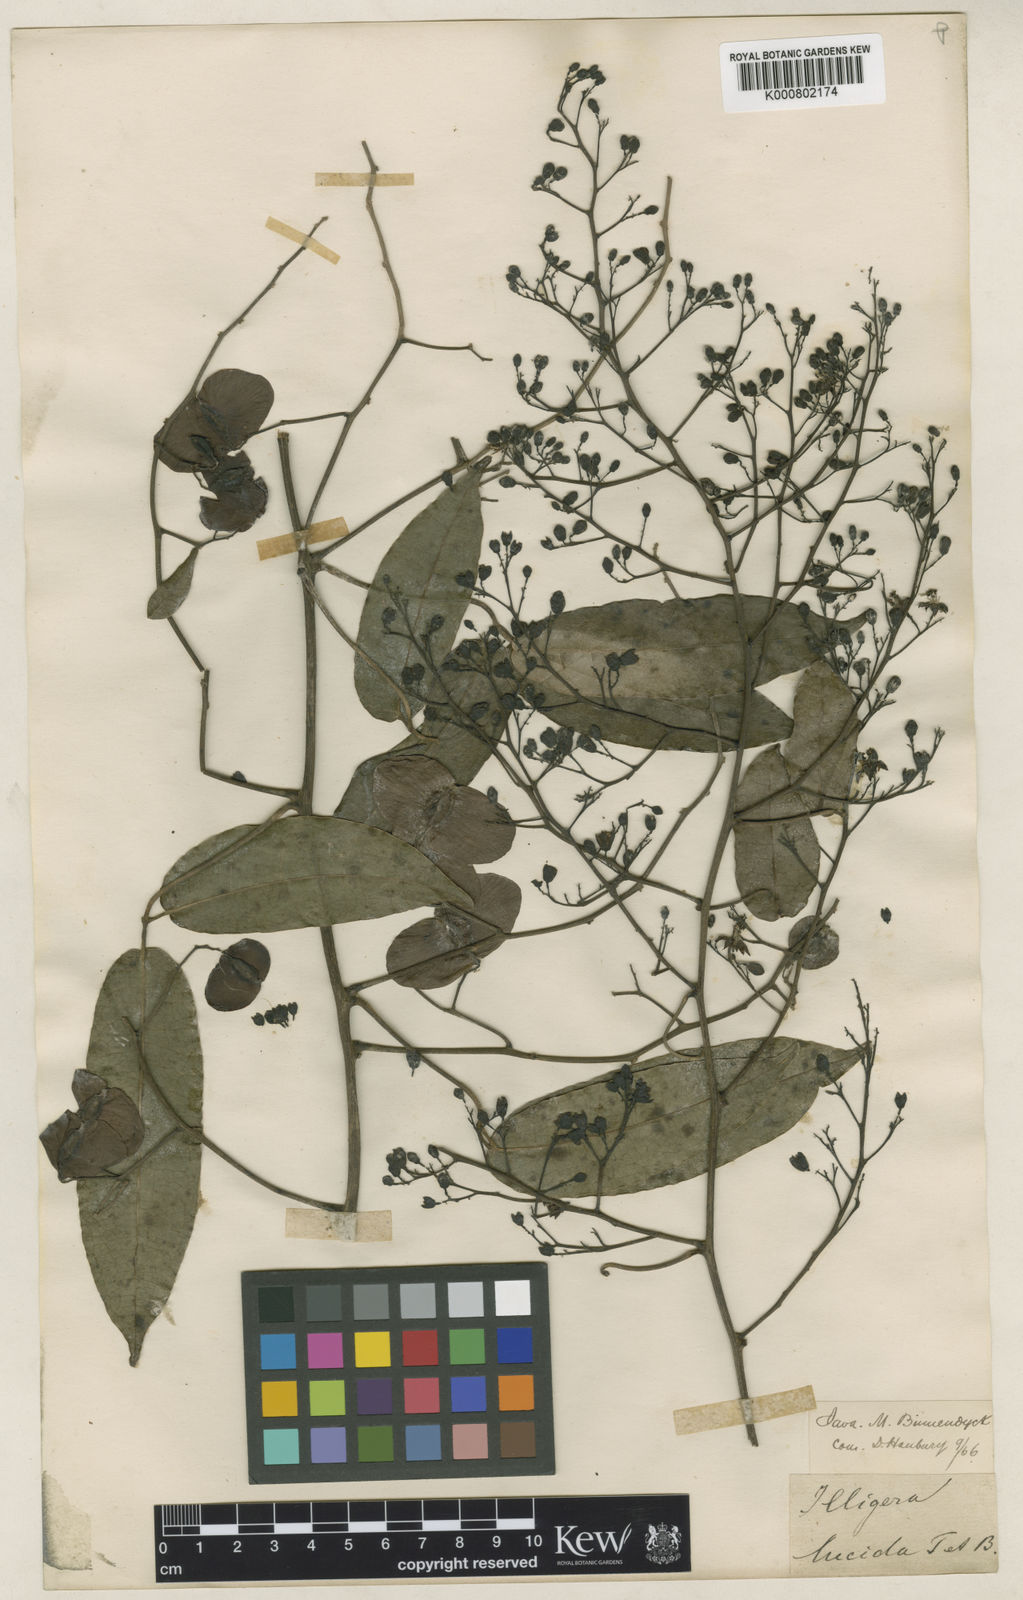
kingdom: Plantae
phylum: Tracheophyta
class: Magnoliopsida
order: Laurales
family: Hernandiaceae
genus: Illigera
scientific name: Illigera pulchra
